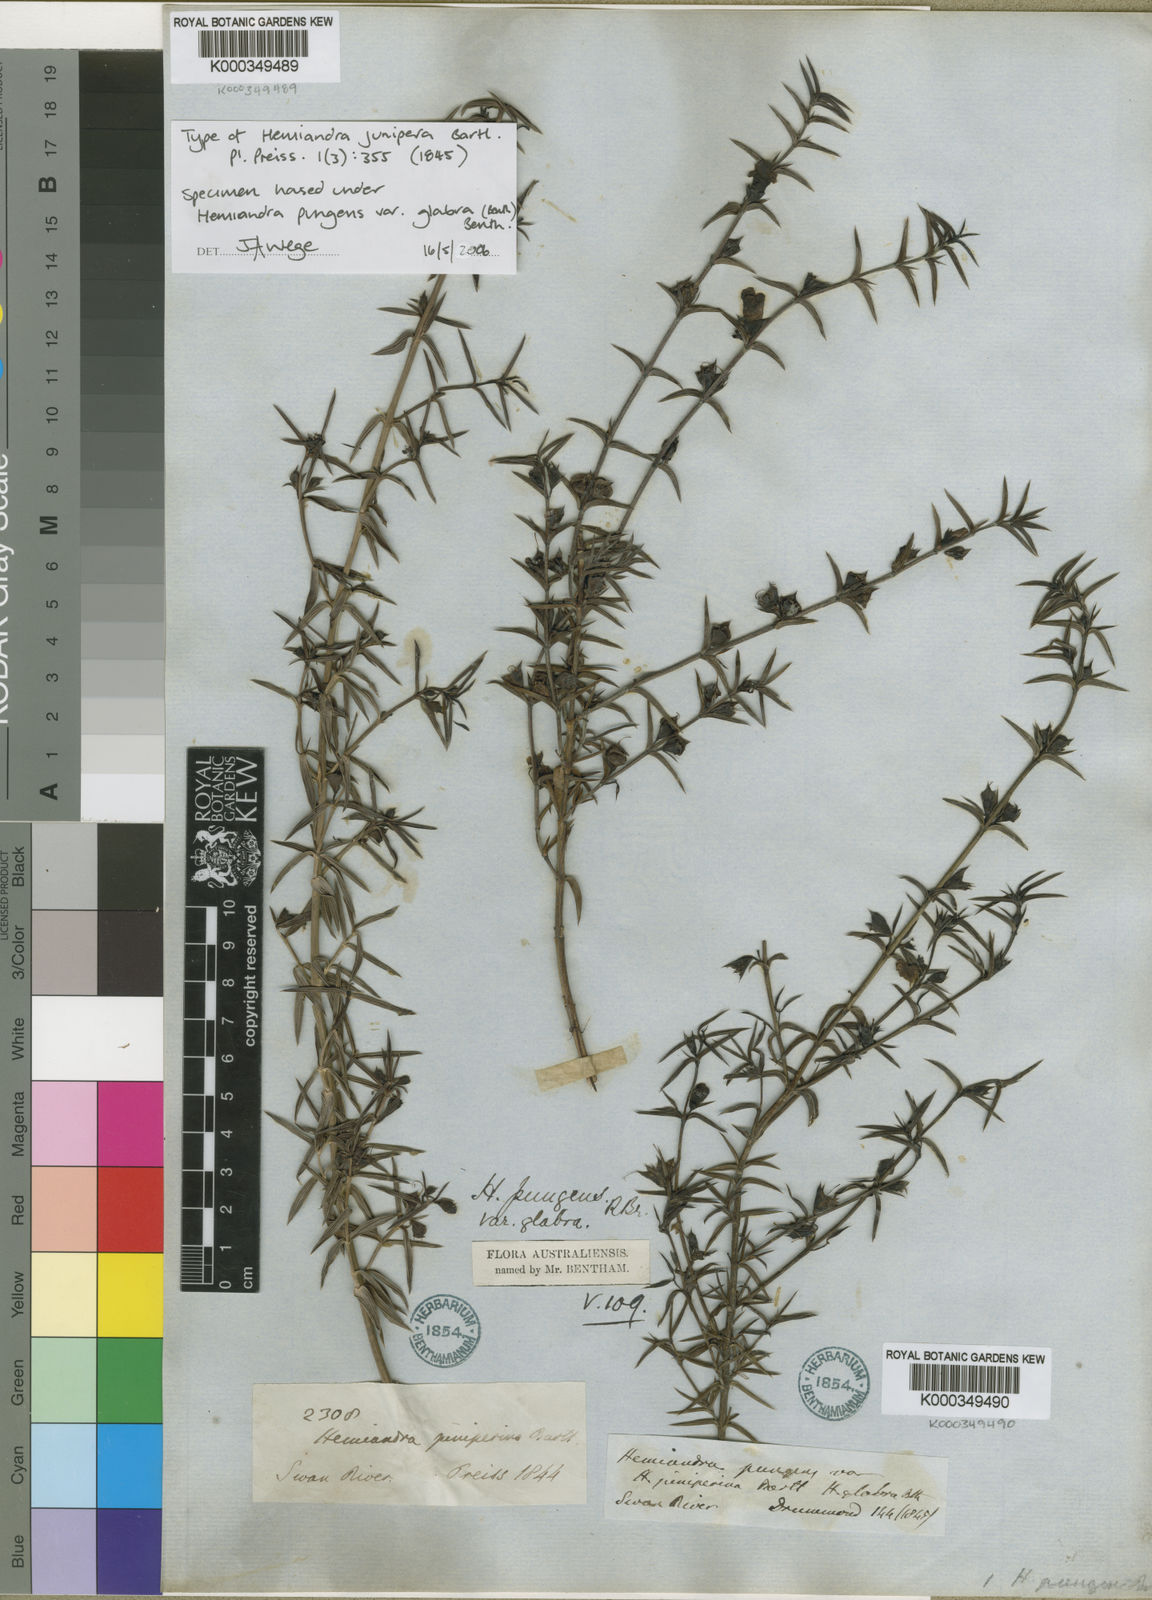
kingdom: Plantae
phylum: Tracheophyta
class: Magnoliopsida
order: Lamiales
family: Lamiaceae
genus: Hemiandra
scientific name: Hemiandra pungens
